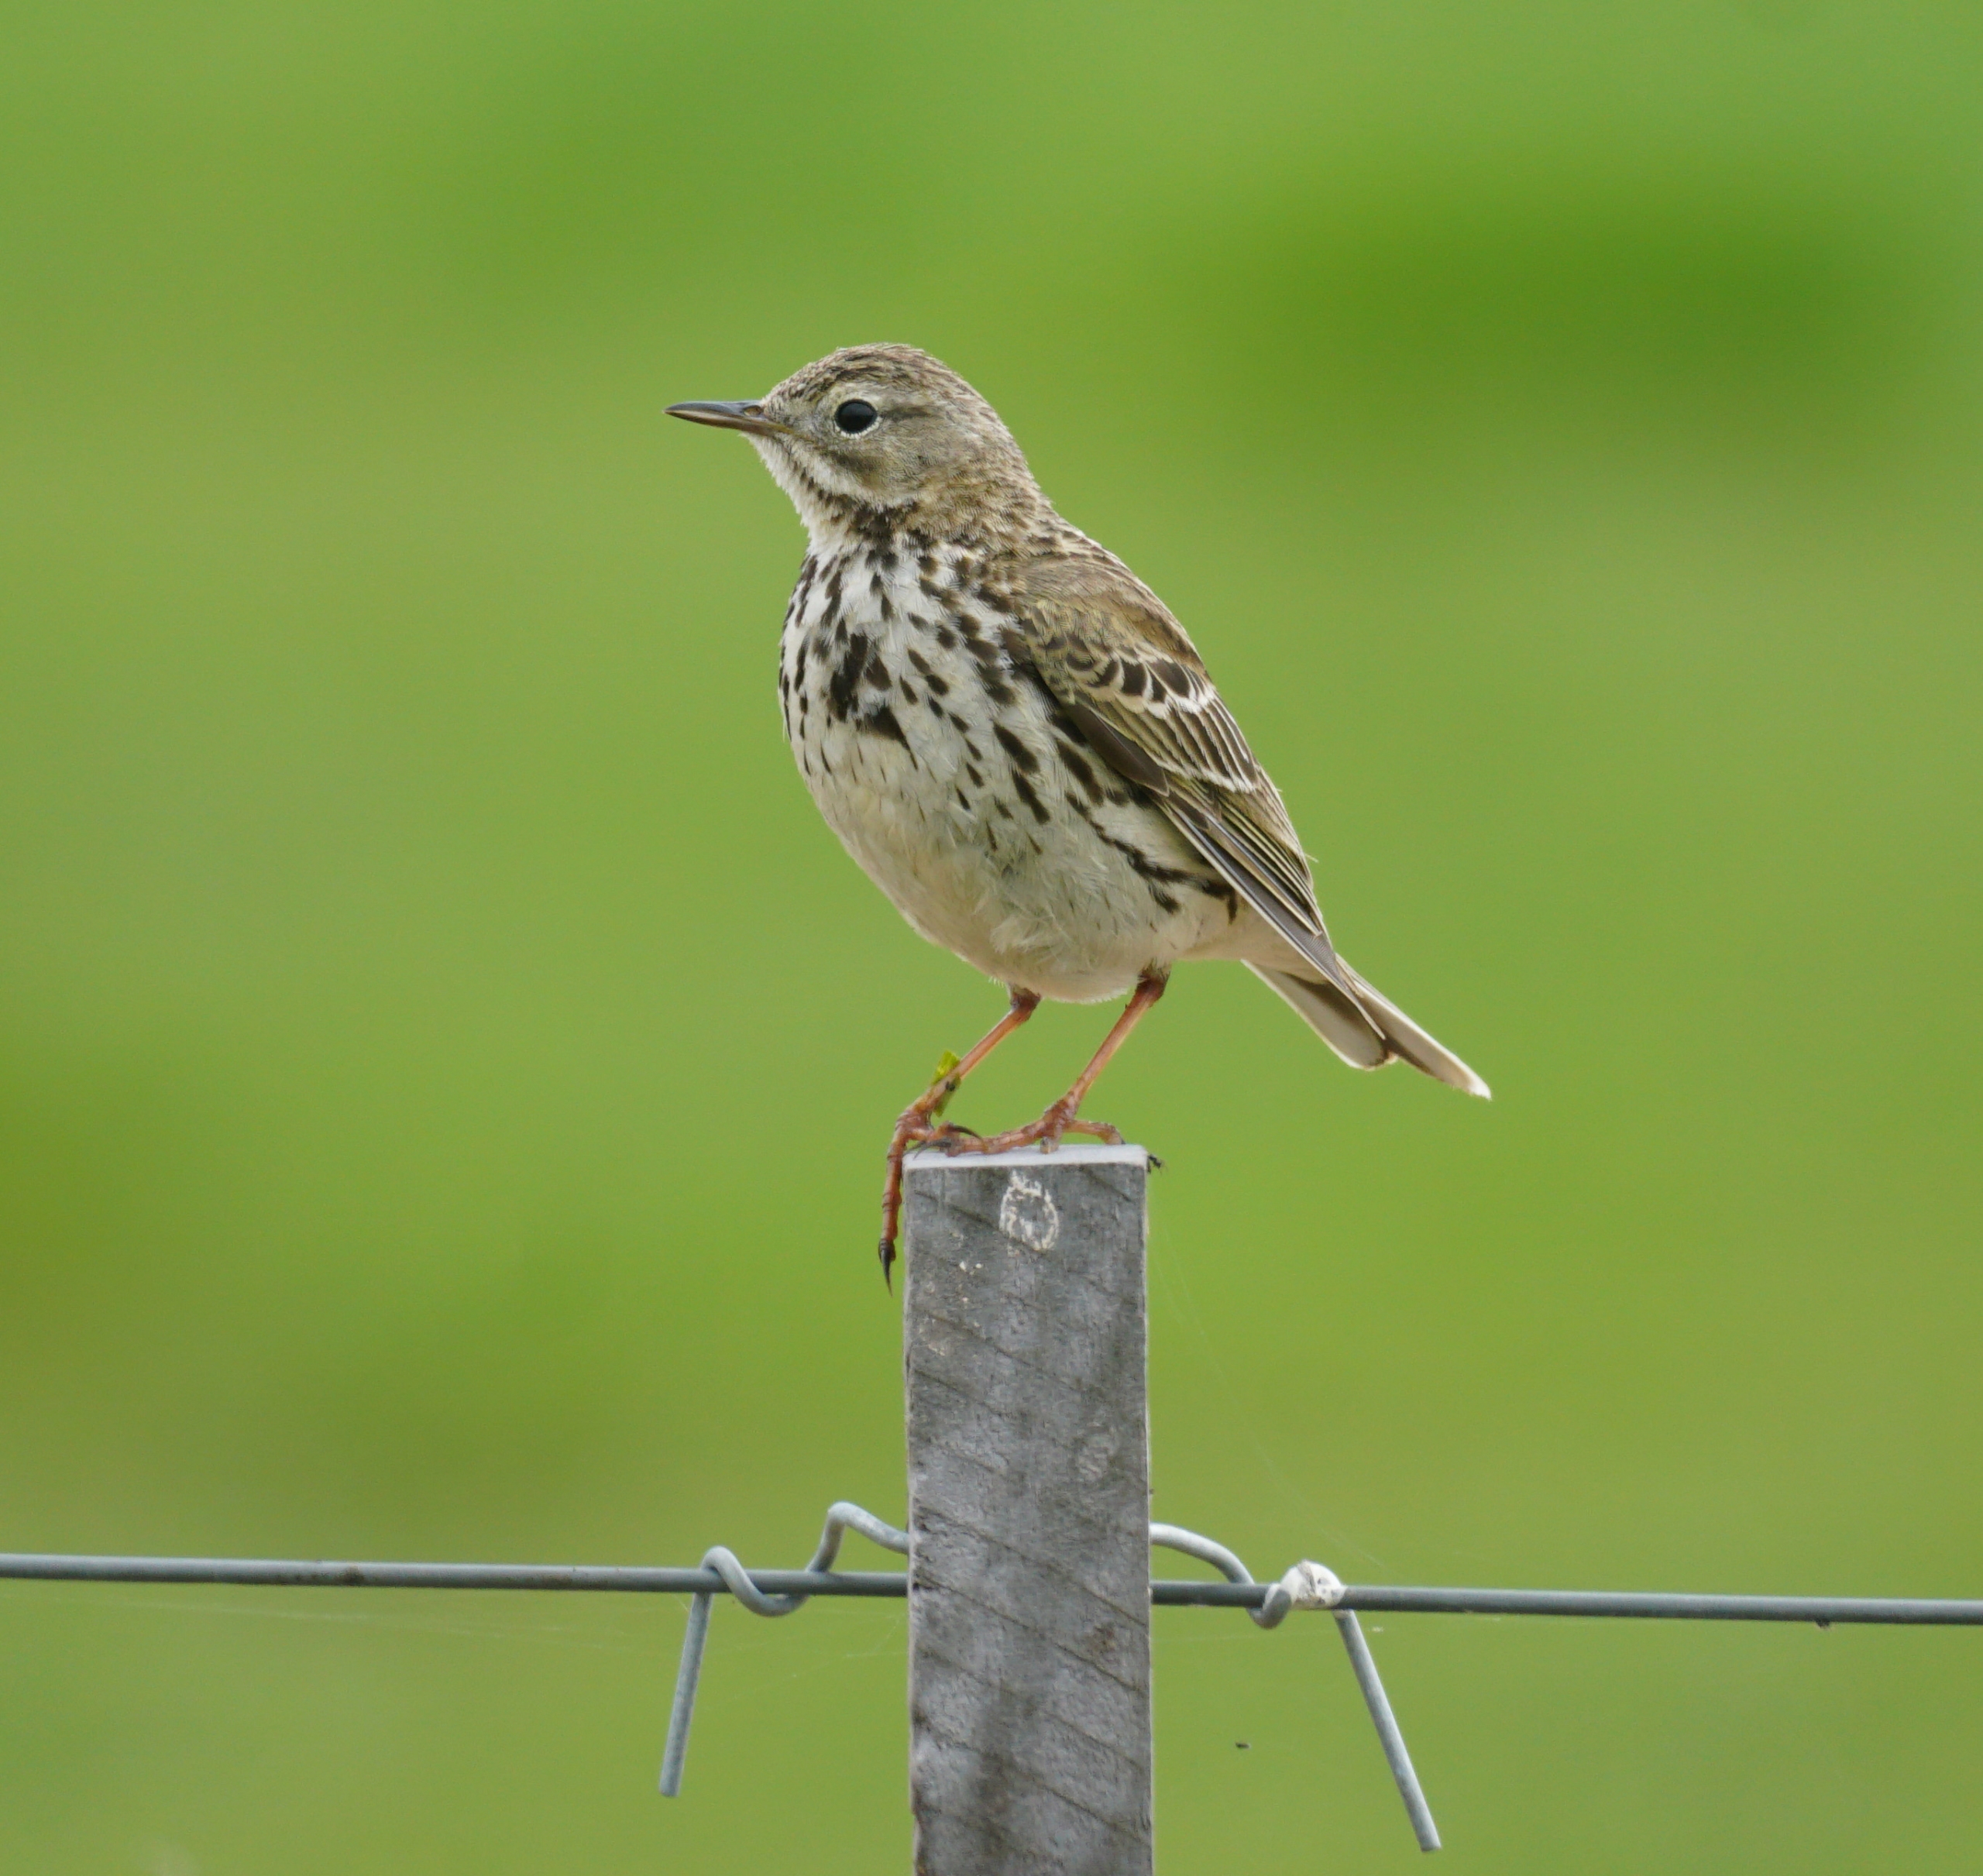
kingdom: Animalia
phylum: Chordata
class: Aves
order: Passeriformes
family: Motacillidae
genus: Anthus
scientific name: Anthus pratensis
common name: Engpiber
